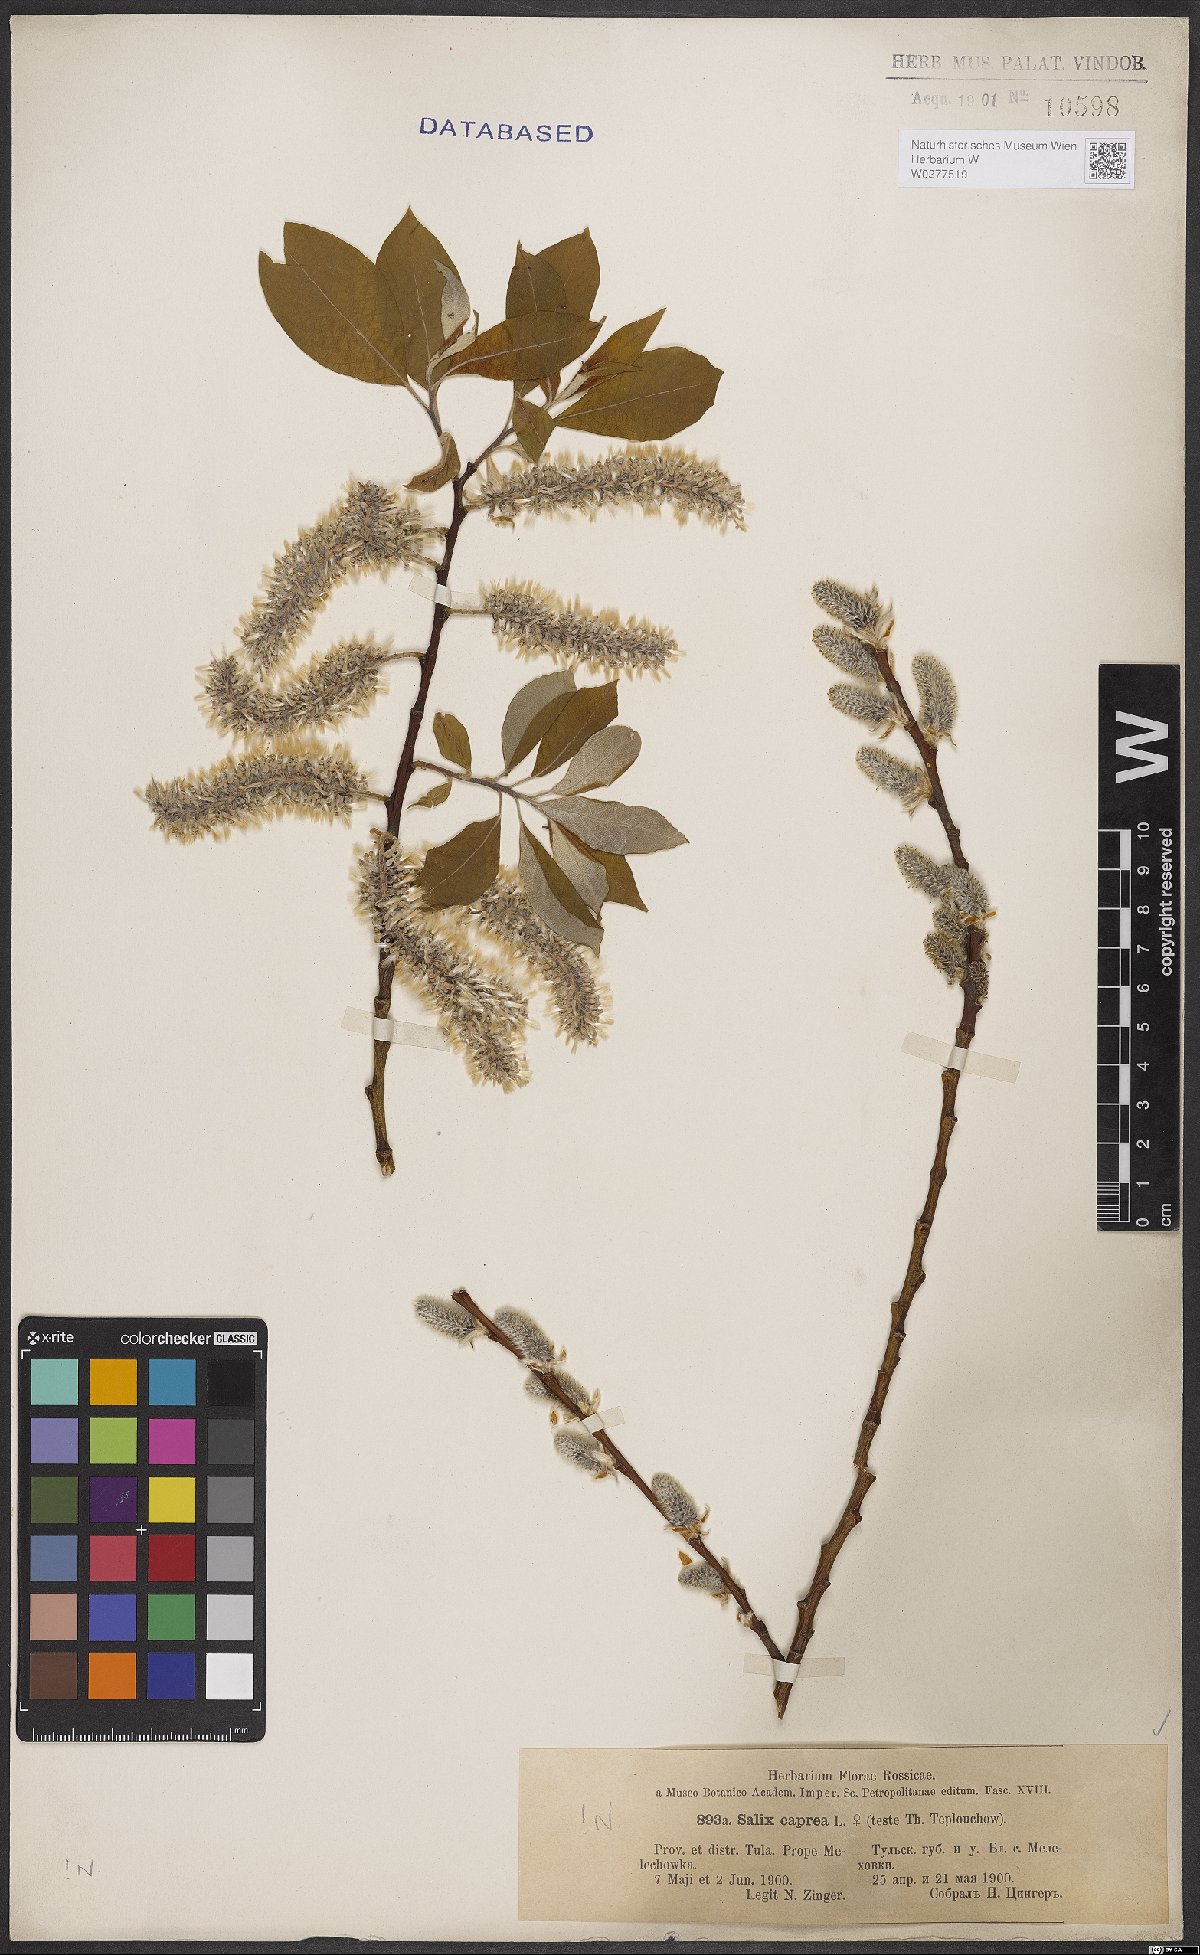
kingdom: Plantae
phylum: Tracheophyta
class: Magnoliopsida
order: Malpighiales
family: Salicaceae
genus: Salix
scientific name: Salix caprea
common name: Goat willow
